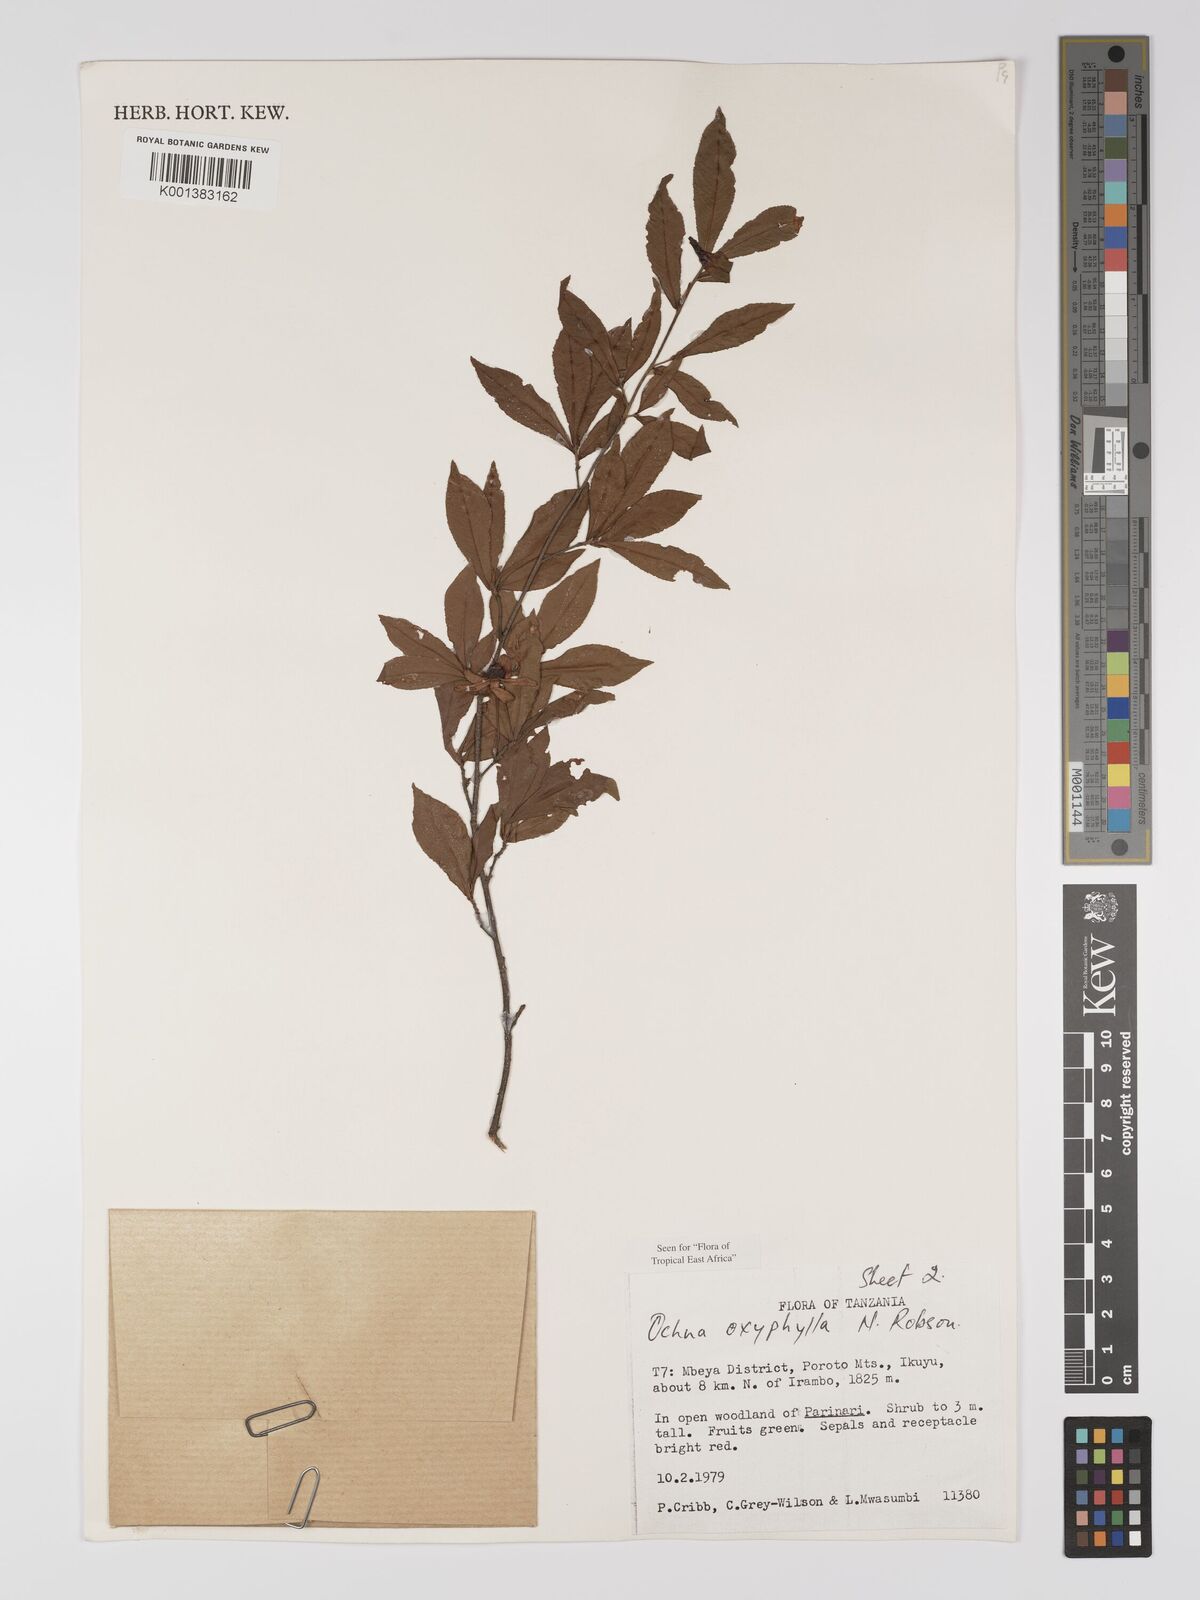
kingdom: Plantae
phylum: Tracheophyta
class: Magnoliopsida
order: Malpighiales
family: Ochnaceae
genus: Ochna
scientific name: Ochna oxyphylla
